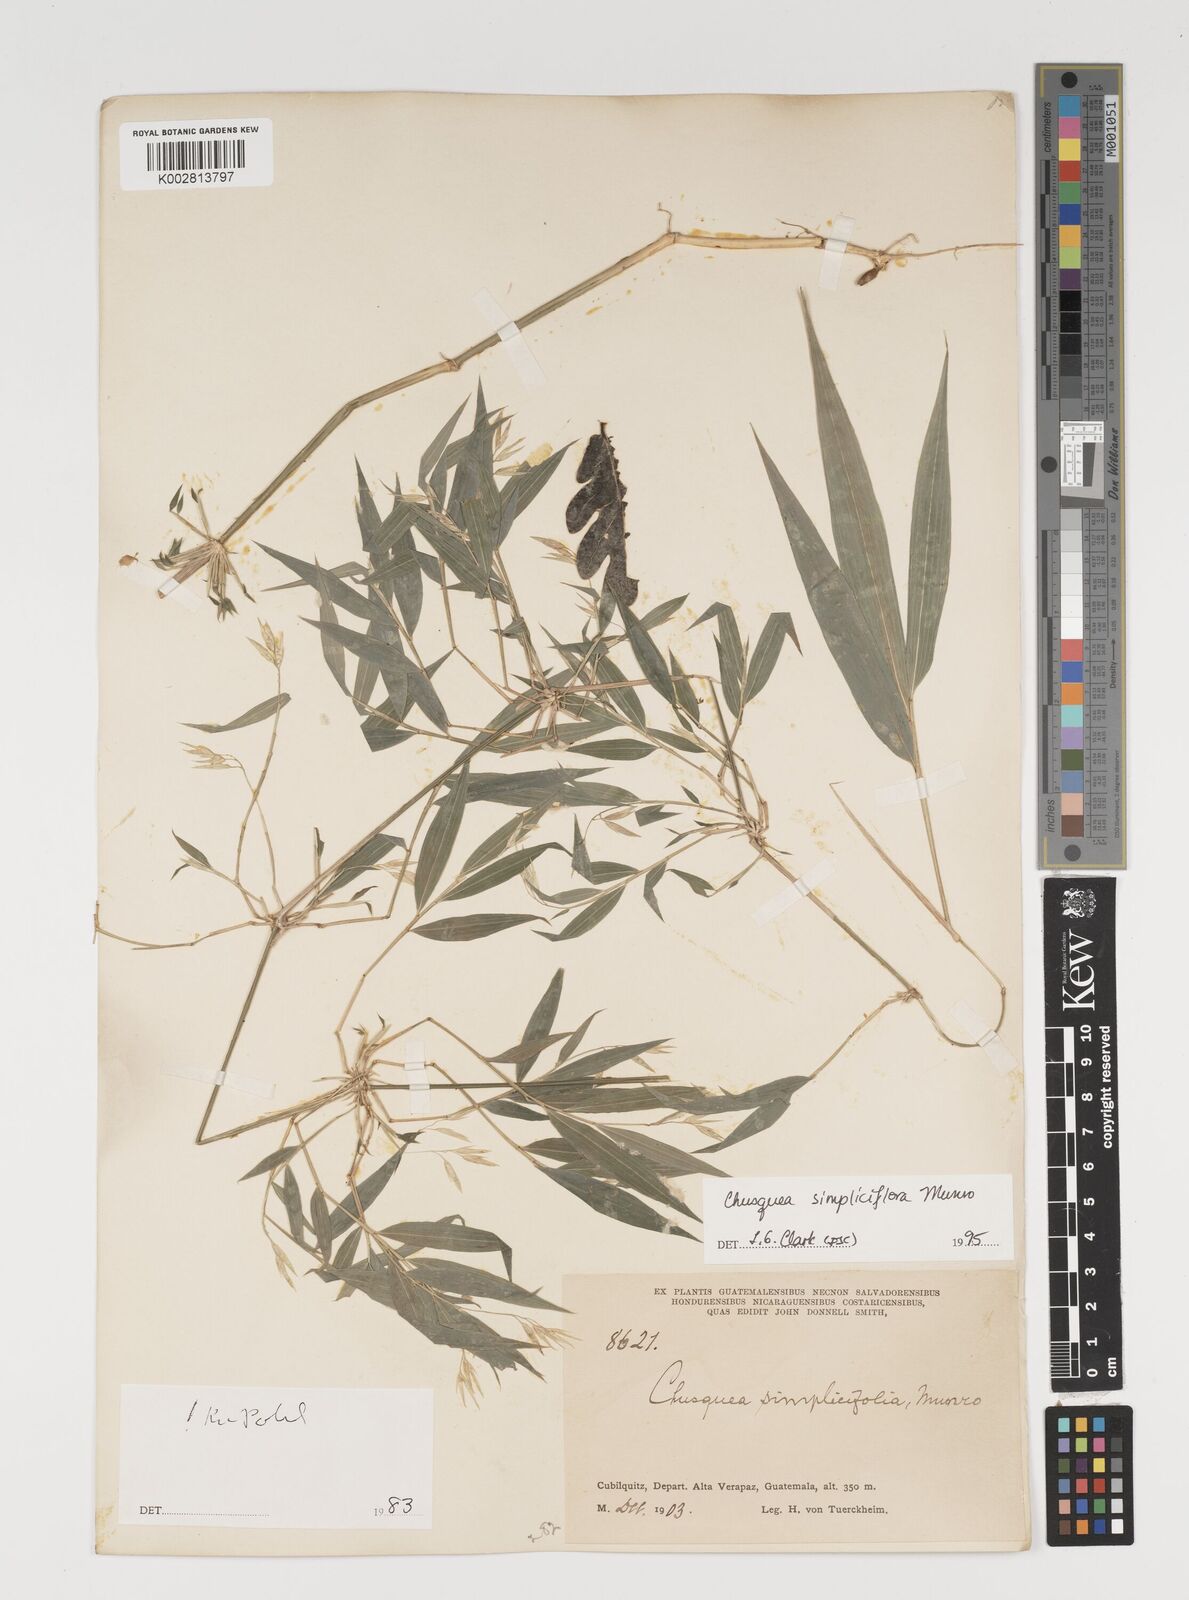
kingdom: Plantae
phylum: Tracheophyta
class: Liliopsida
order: Poales
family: Poaceae
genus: Chusquea
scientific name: Chusquea simpliciflora
